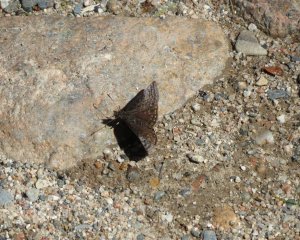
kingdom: Animalia
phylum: Arthropoda
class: Insecta
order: Lepidoptera
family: Hesperiidae
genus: Erynnis
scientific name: Erynnis icelus
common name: Dreamy Duskywing
